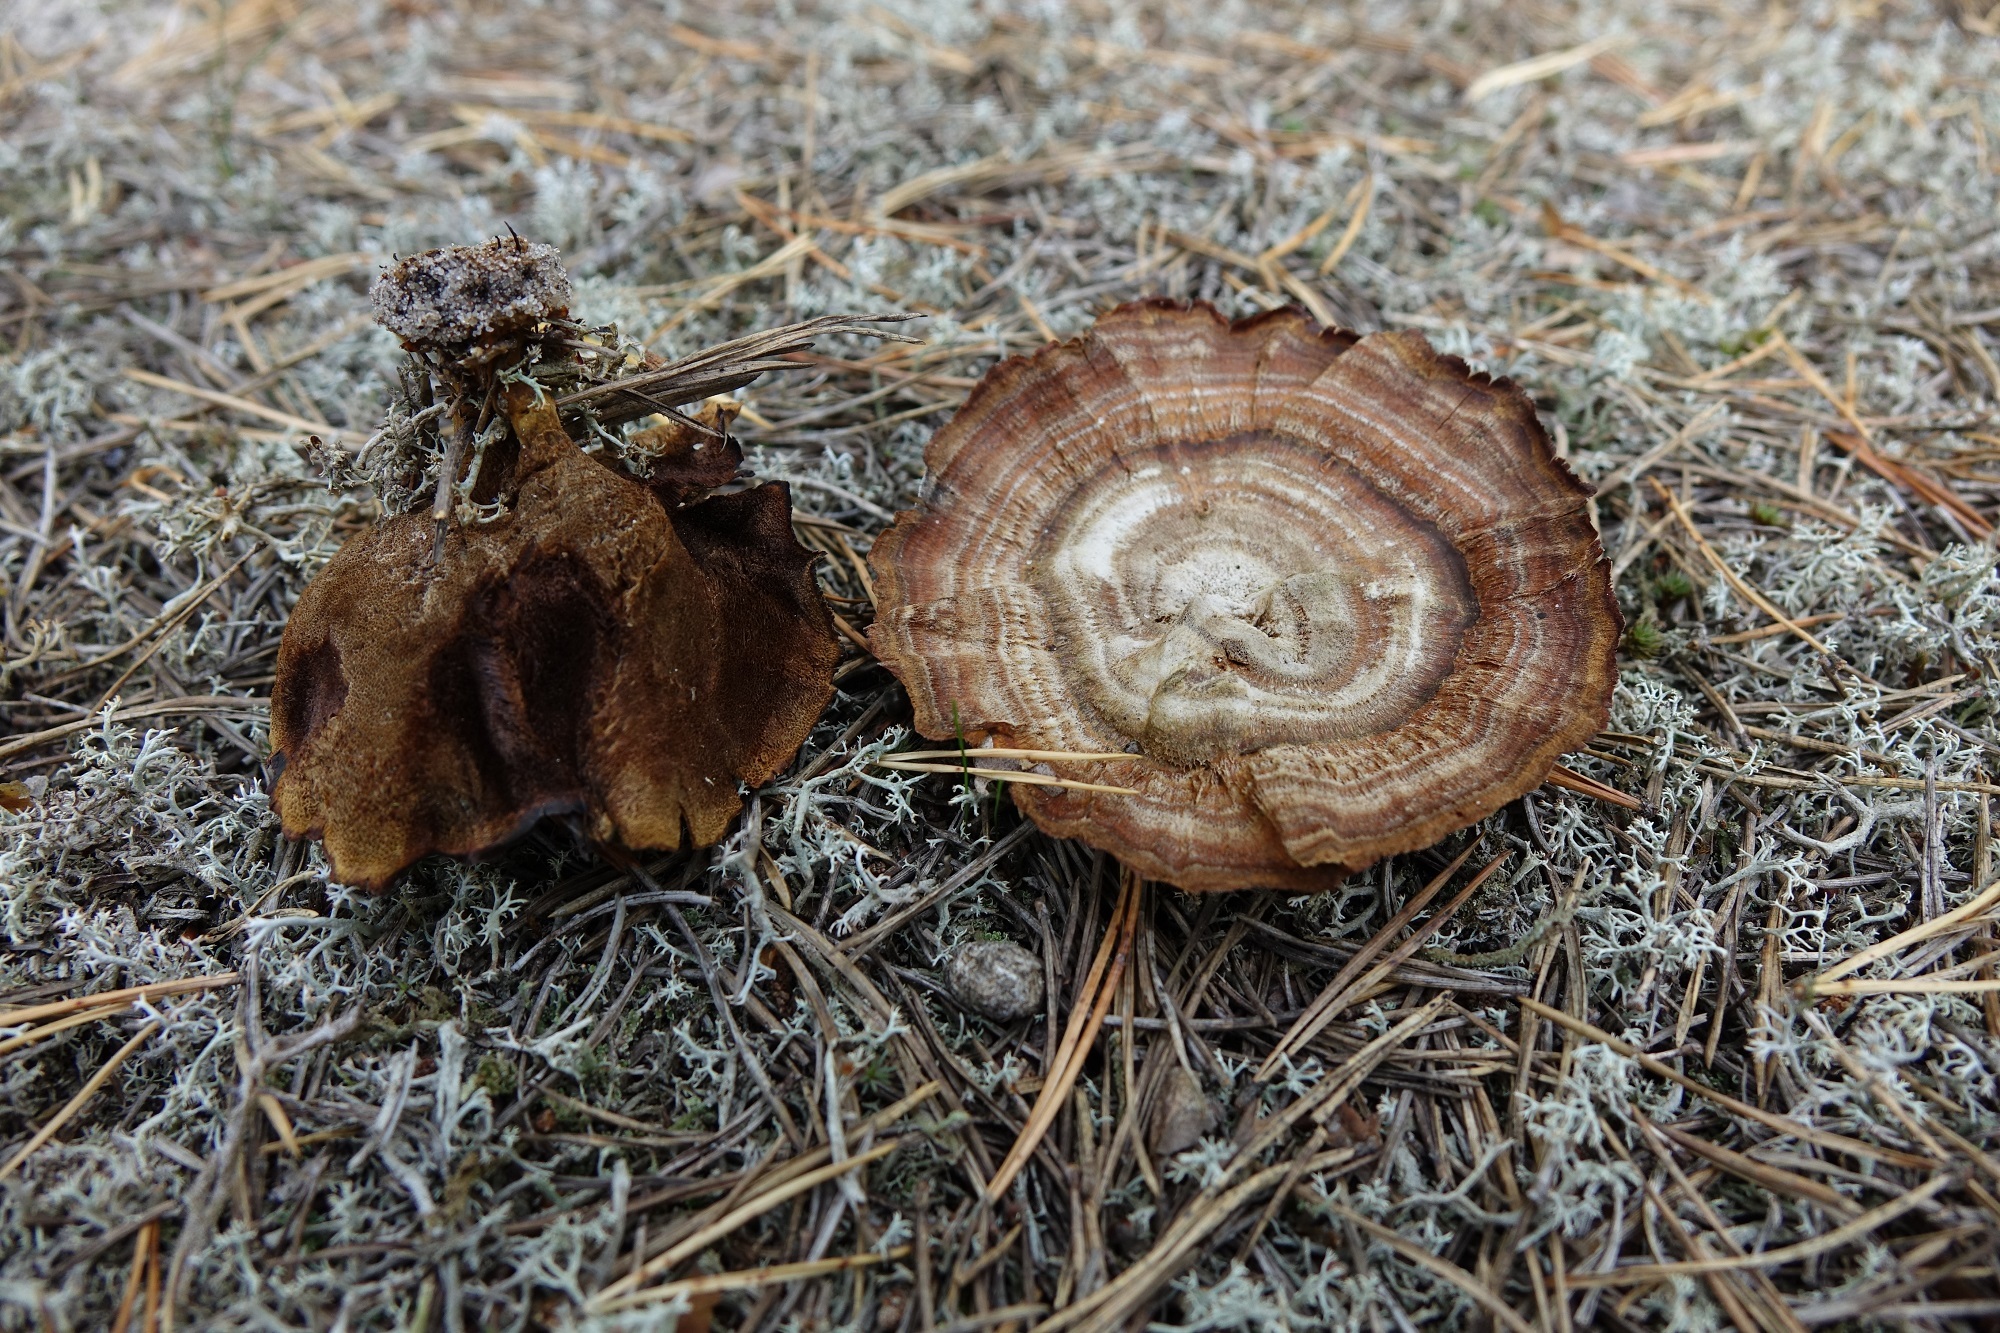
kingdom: Fungi
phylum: Basidiomycota
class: Agaricomycetes
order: Hymenochaetales
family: Hymenochaetaceae
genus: Coltricia
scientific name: Coltricia perennis
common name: Tiger's eye
